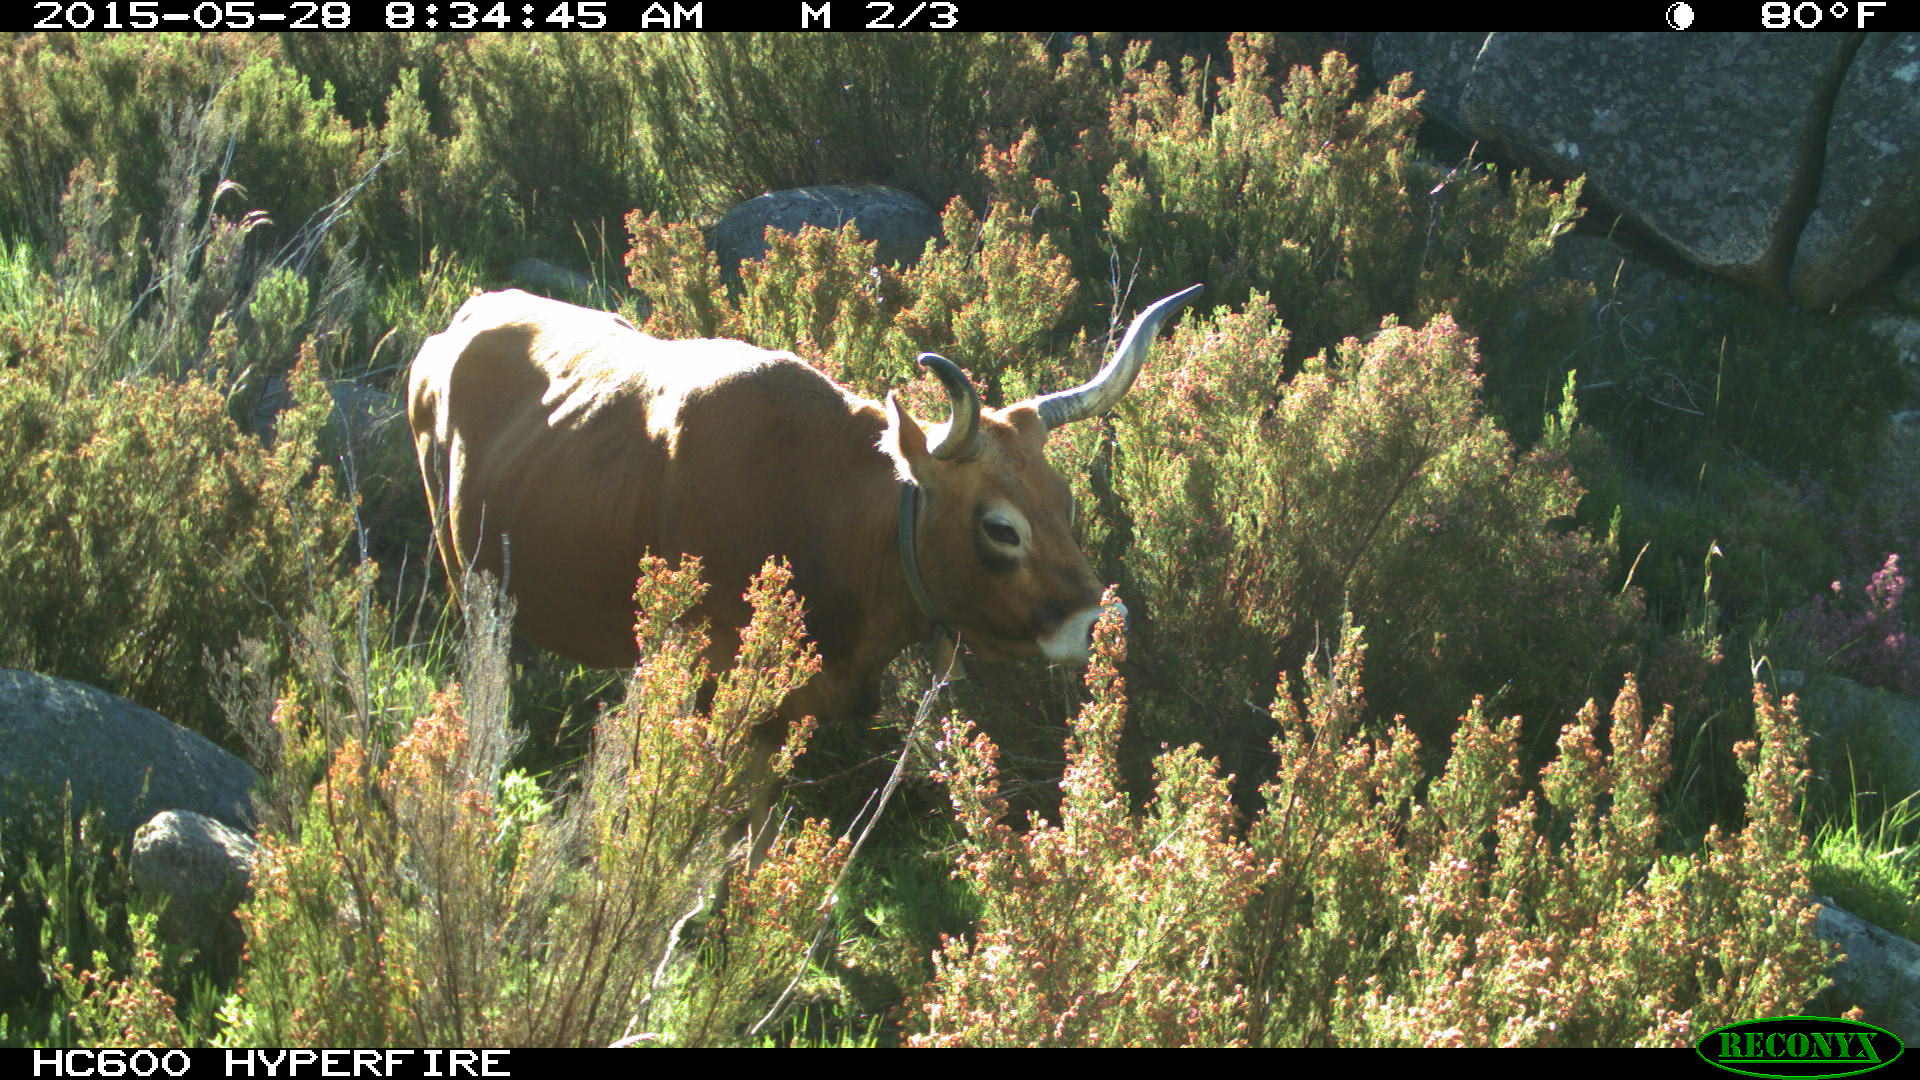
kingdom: Animalia
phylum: Chordata
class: Mammalia
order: Artiodactyla
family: Bovidae
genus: Bos
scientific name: Bos taurus
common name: Domesticated cattle
